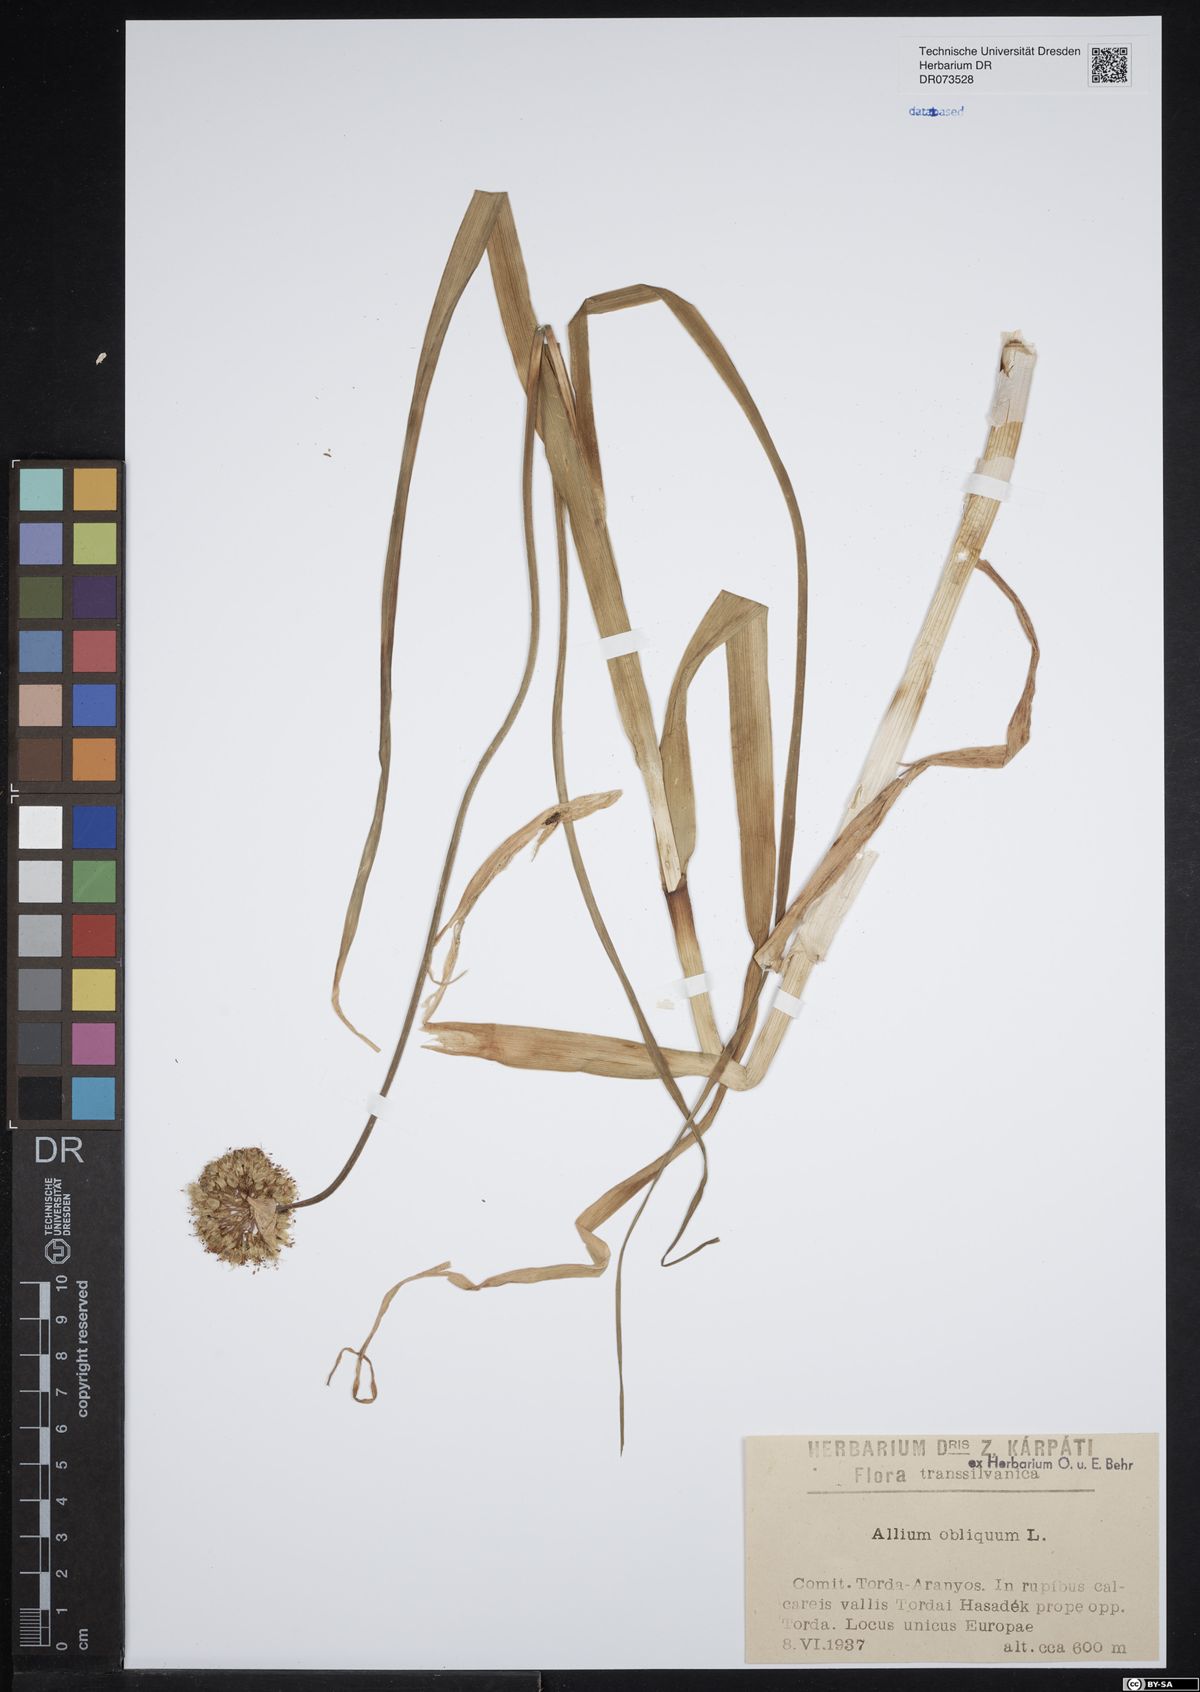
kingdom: Plantae
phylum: Tracheophyta
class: Liliopsida
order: Asparagales
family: Amaryllidaceae
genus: Allium
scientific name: Allium obliquum
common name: Oblique onion
